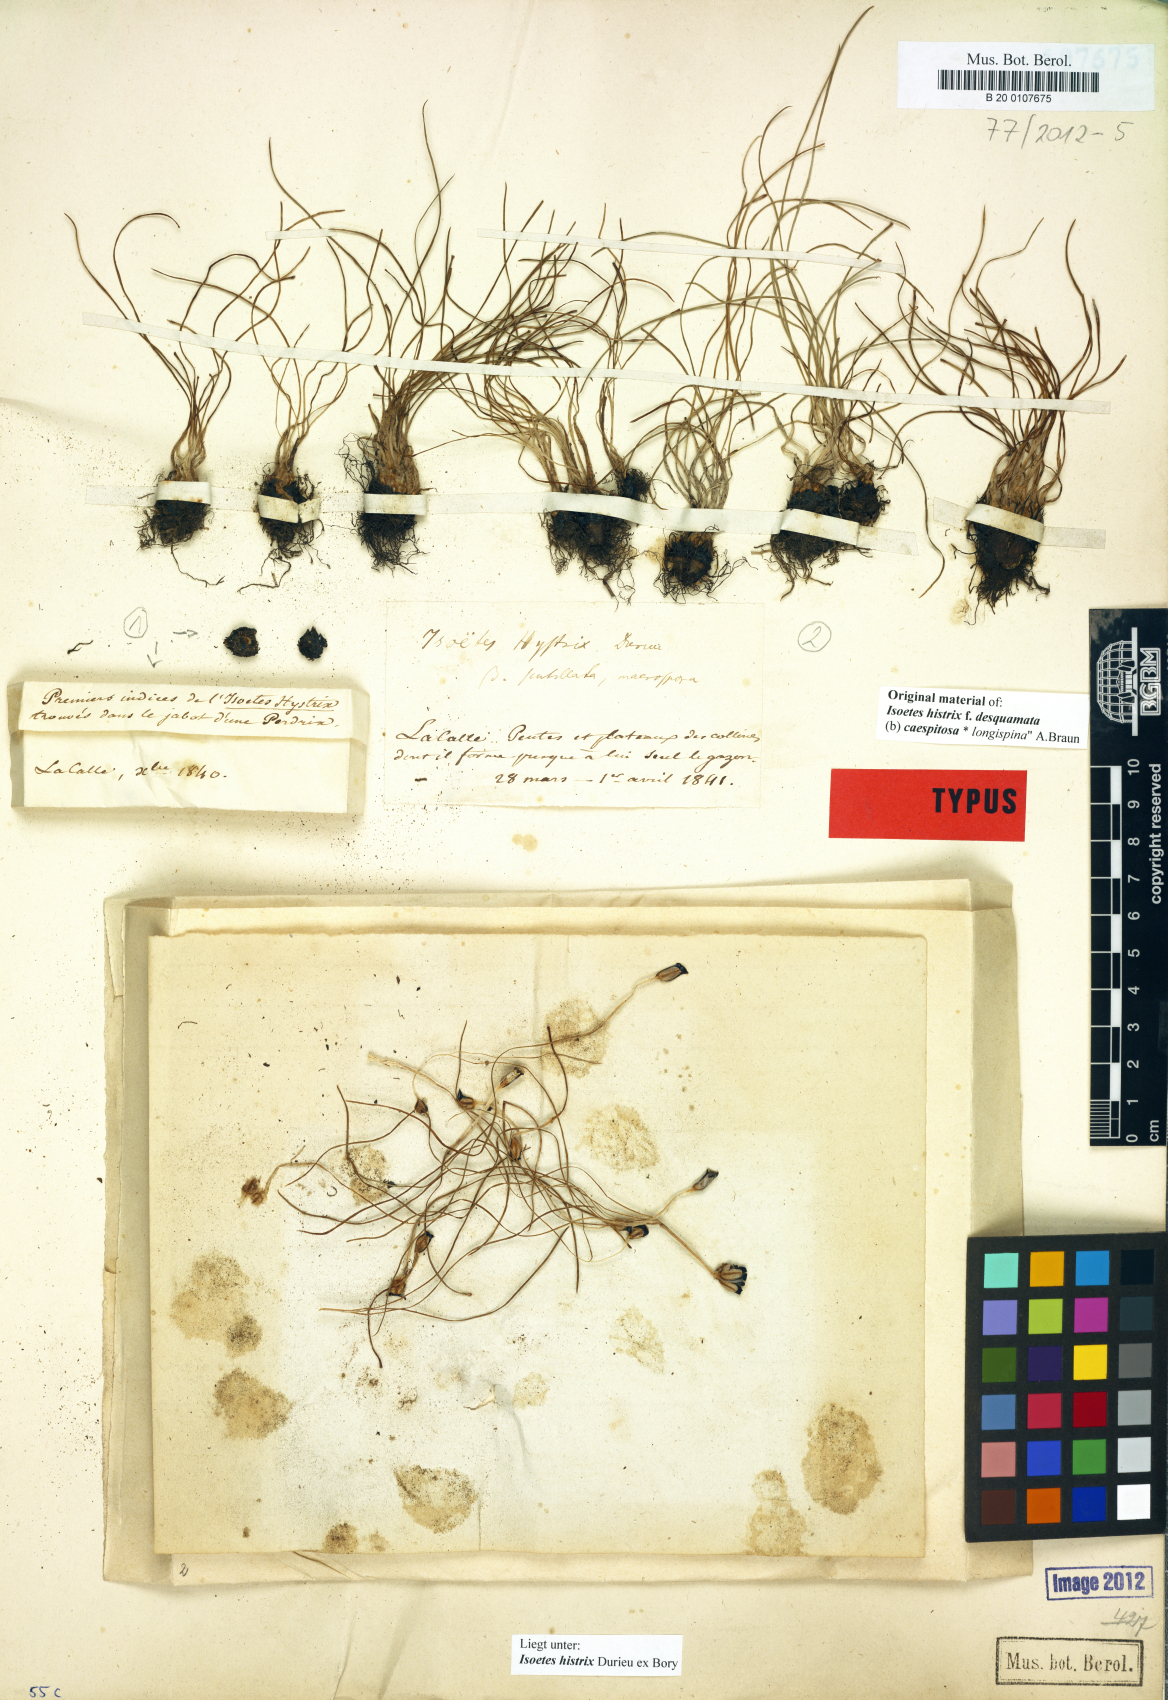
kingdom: Plantae
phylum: Tracheophyta
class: Lycopodiopsida
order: Isoetales
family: Isoetaceae
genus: Isoetes
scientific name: Isoetes histrix
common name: Land quillwort
